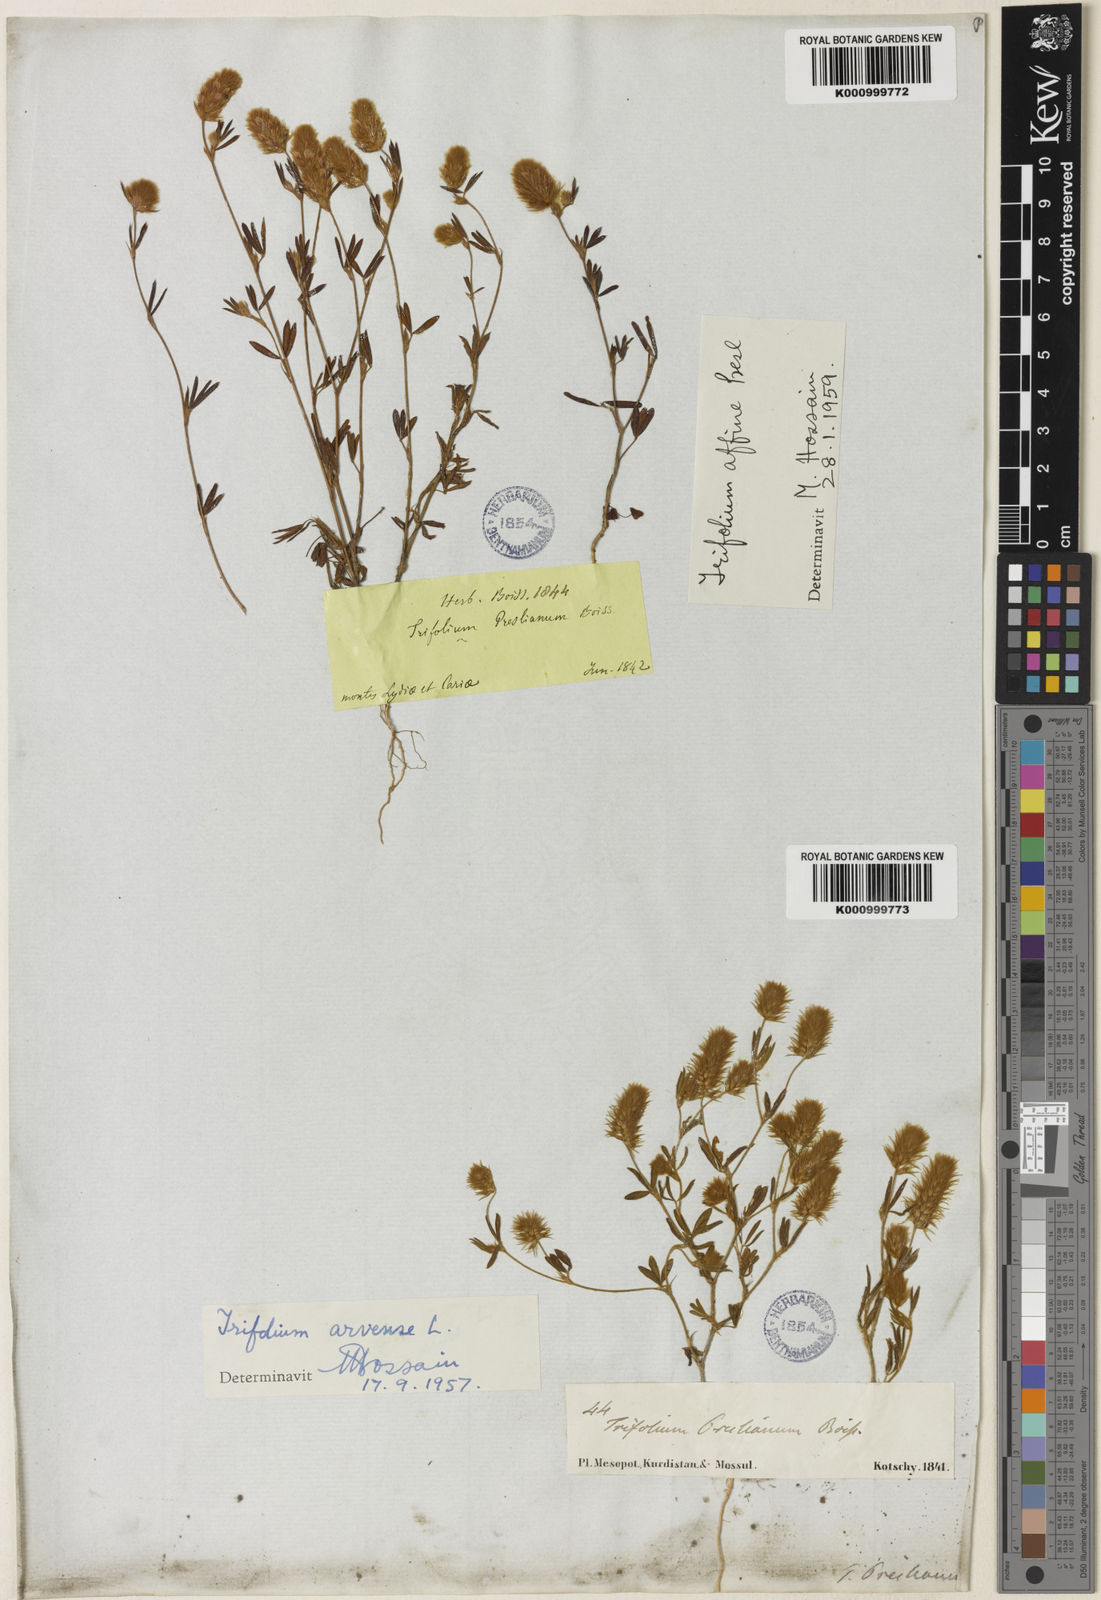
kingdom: Plantae
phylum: Tracheophyta
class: Magnoliopsida
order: Fabales
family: Fabaceae
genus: Trifolium
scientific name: Trifolium arvense
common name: Hare's-foot clover
